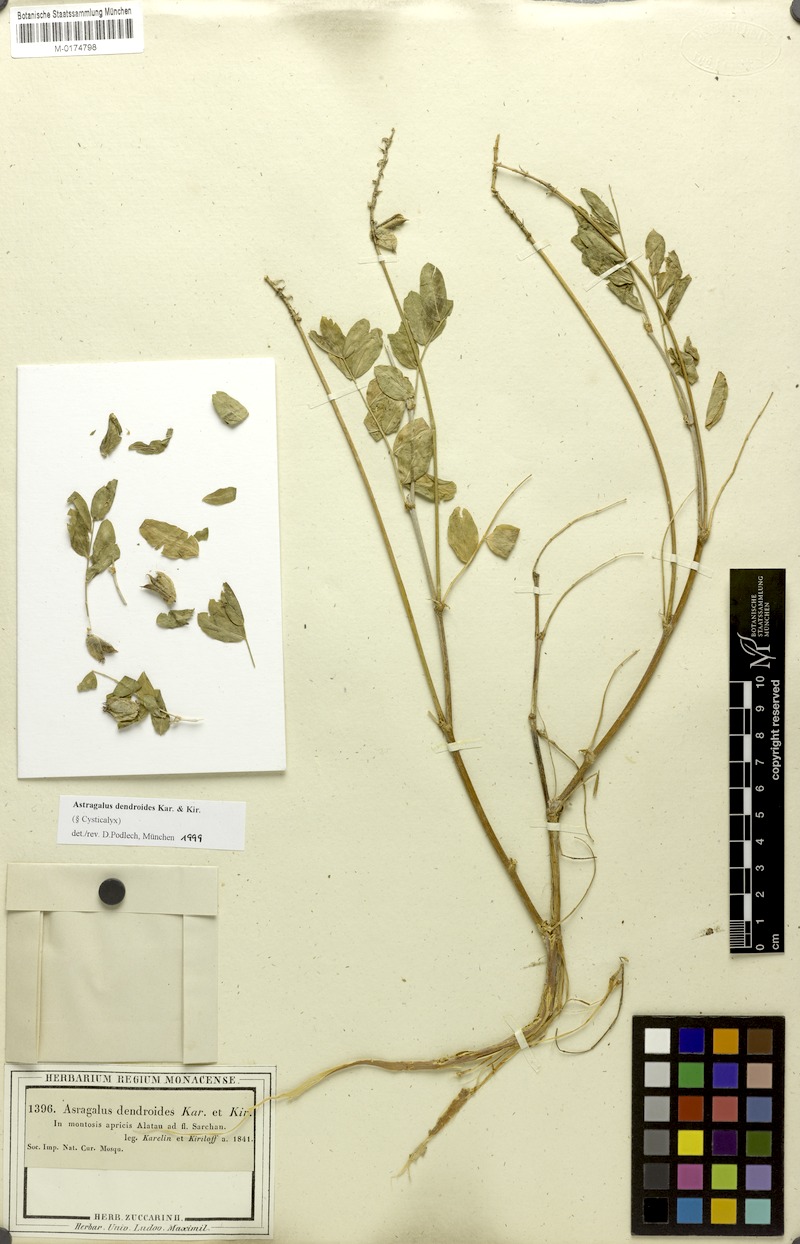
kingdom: Plantae
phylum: Tracheophyta
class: Magnoliopsida
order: Fabales
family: Fabaceae
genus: Astragalus
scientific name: Astragalus dendroides
